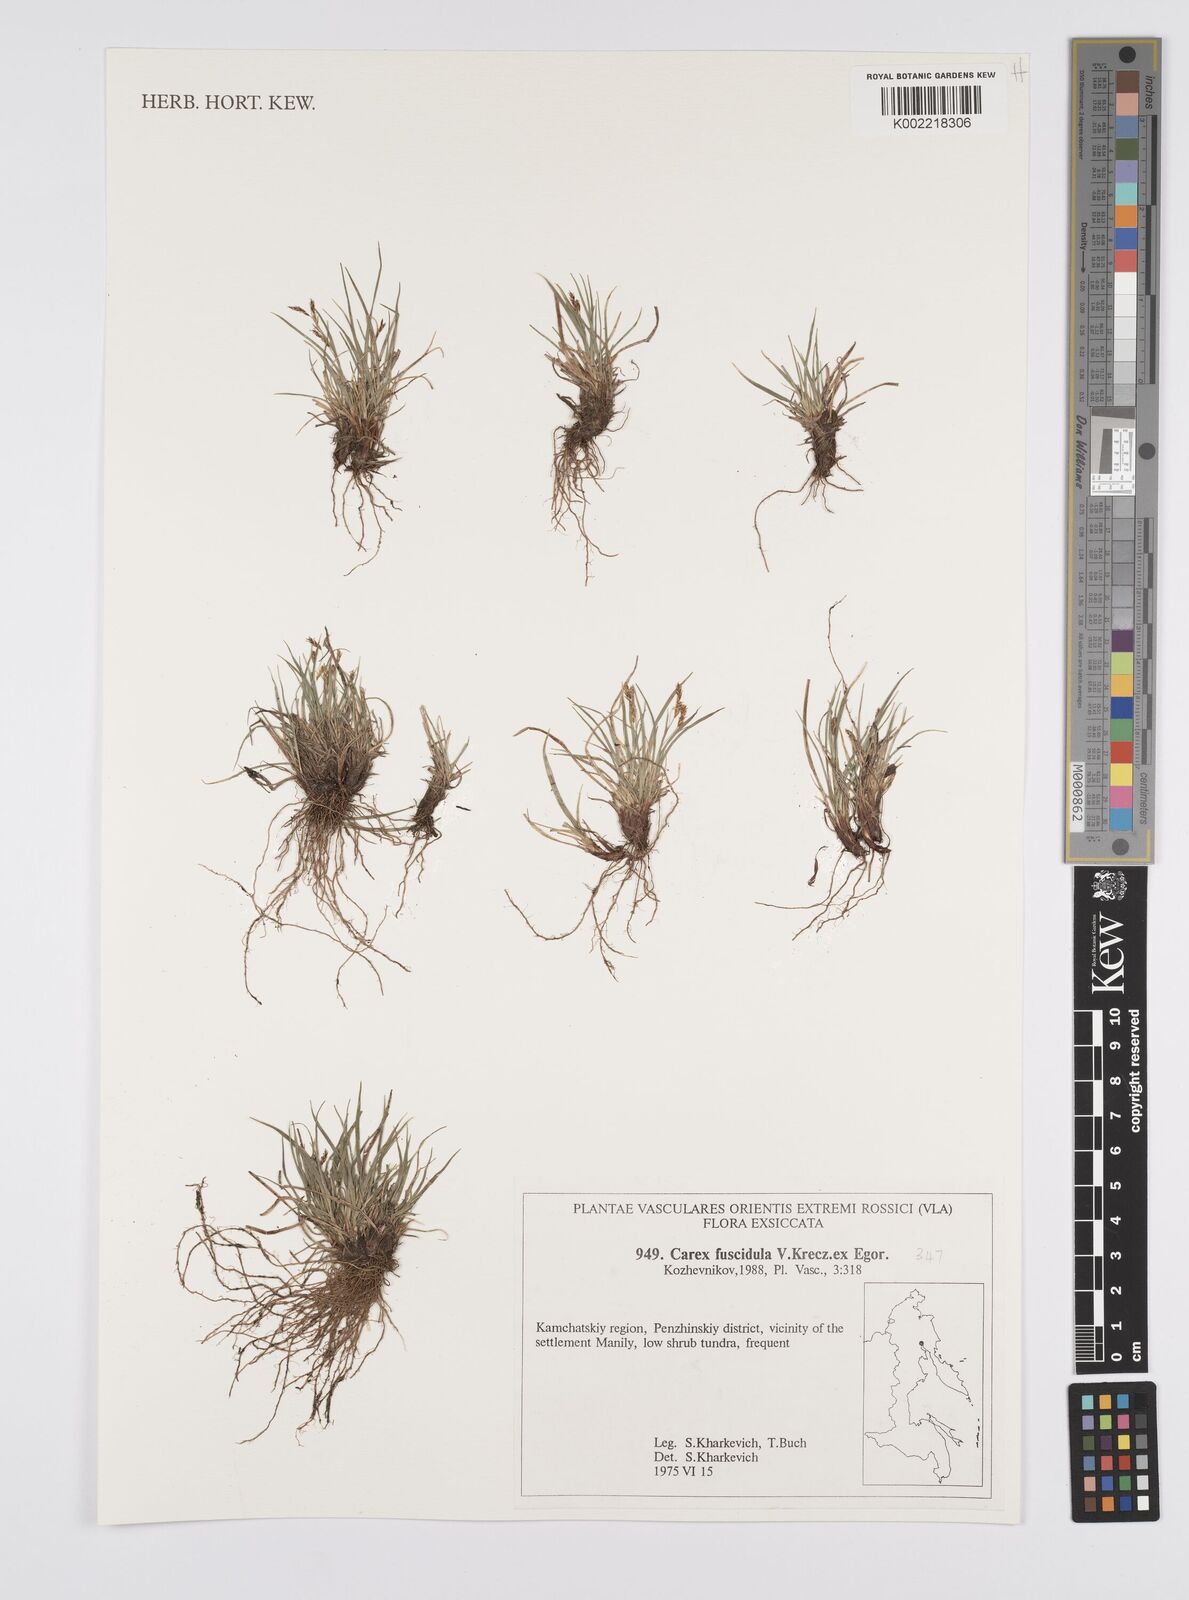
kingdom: Plantae
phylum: Tracheophyta
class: Liliopsida
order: Poales
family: Cyperaceae
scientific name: Cyperaceae
